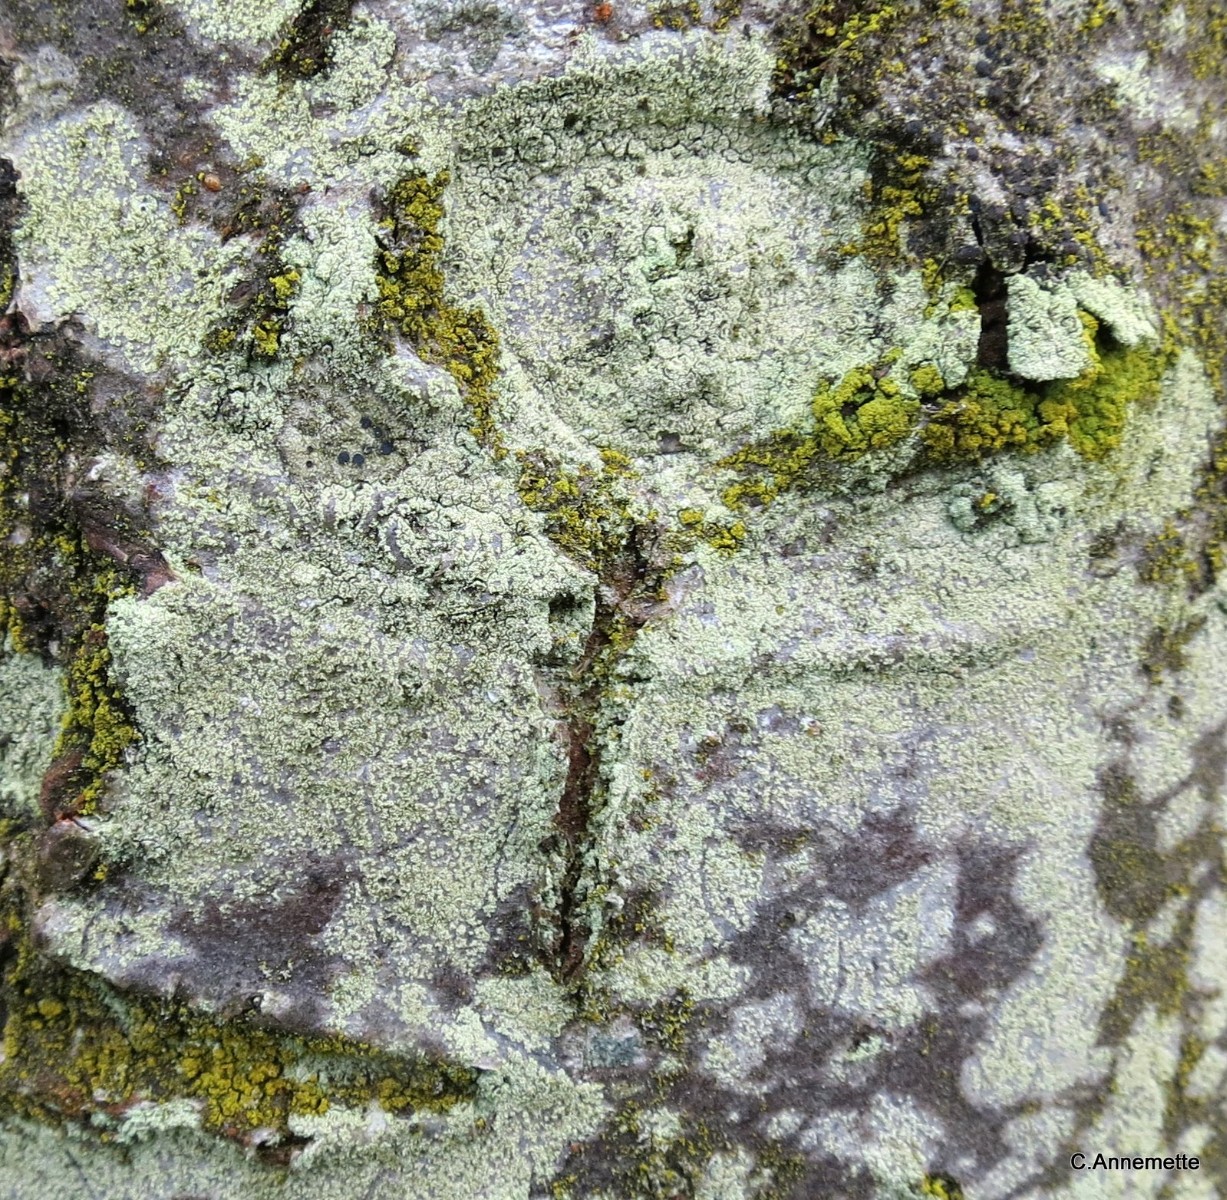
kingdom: Fungi
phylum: Ascomycota
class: Lecanoromycetes
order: Lecanorales
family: Lecanoraceae
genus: Lecanora
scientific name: Lecanora expallens
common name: bleggul kantskivelav
